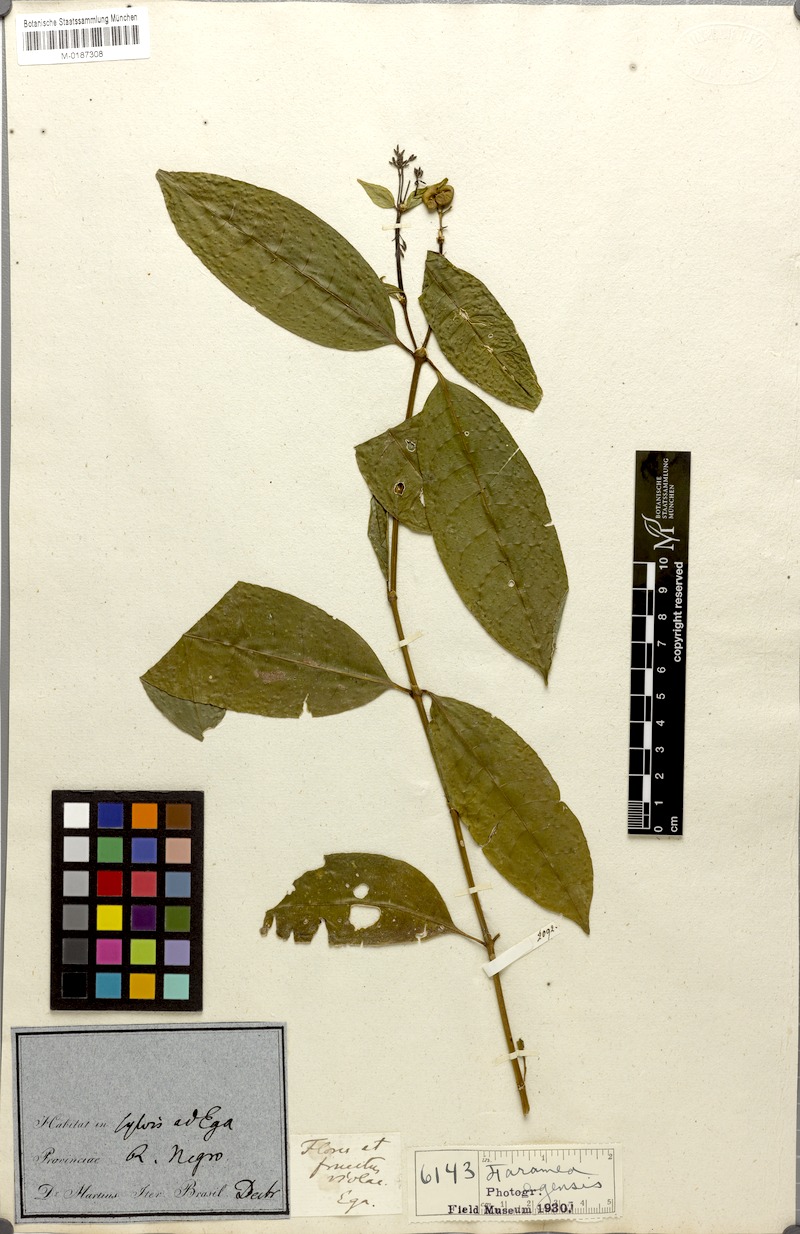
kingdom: Plantae
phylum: Tracheophyta
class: Magnoliopsida
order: Gentianales
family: Rubiaceae
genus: Faramea
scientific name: Faramea multiflora
